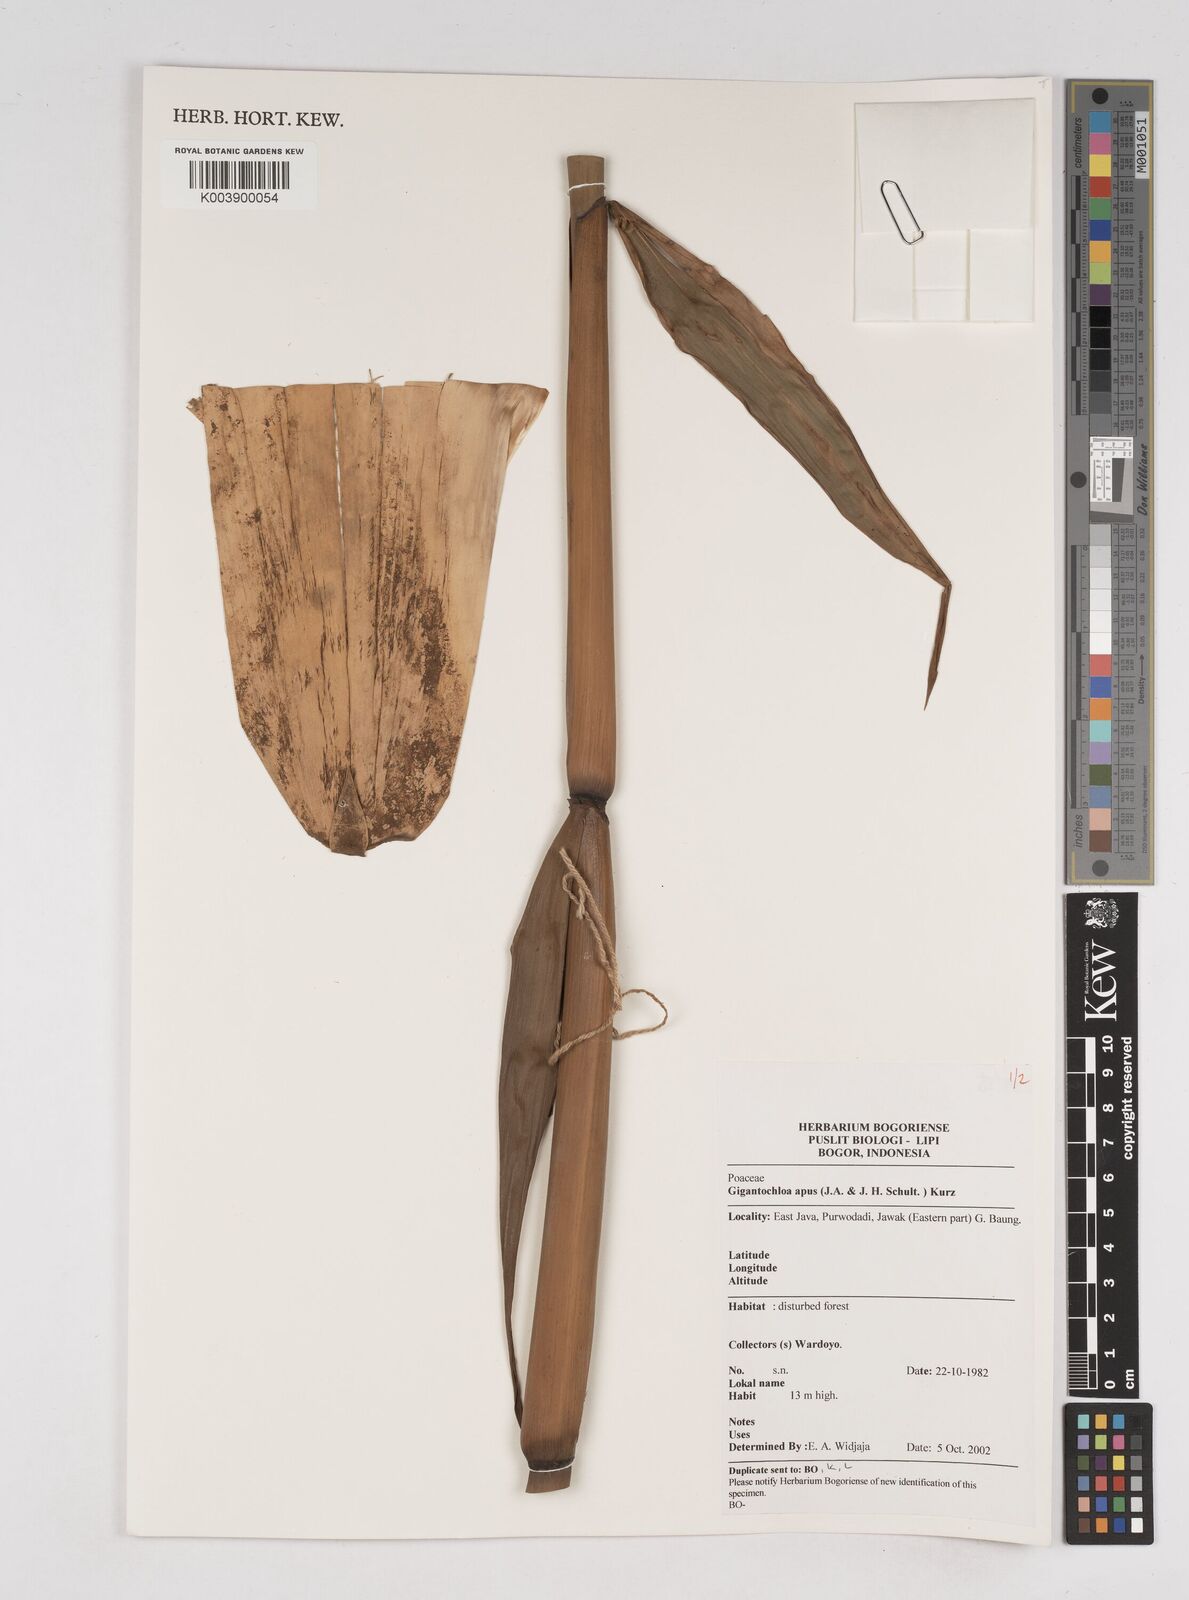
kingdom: Plantae
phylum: Tracheophyta
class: Liliopsida
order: Poales
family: Poaceae
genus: Gigantochloa
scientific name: Gigantochloa apus
